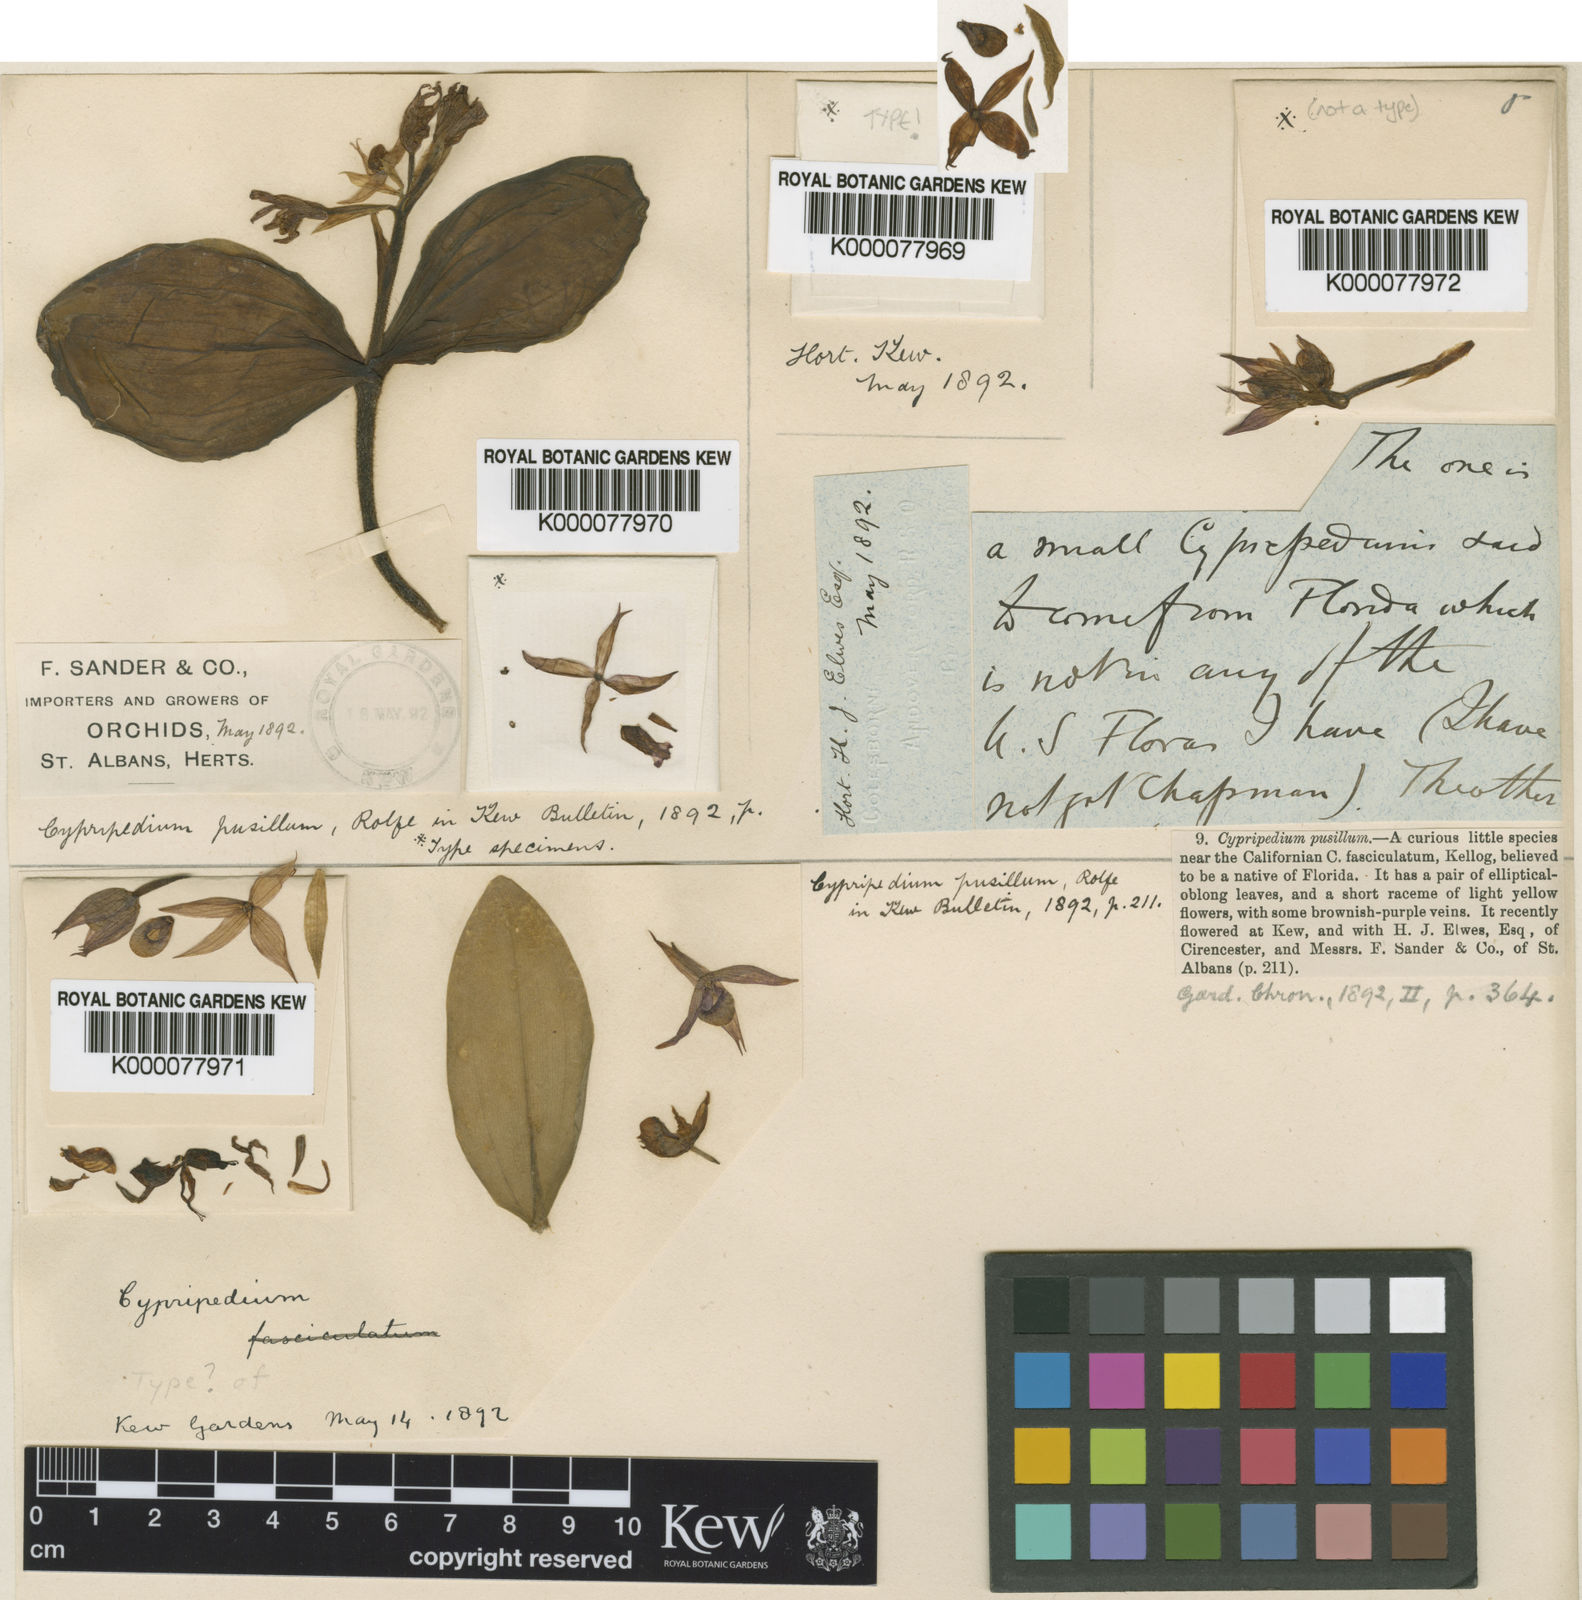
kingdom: Plantae
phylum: Tracheophyta
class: Liliopsida
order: Asparagales
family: Orchidaceae
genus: Cypripedium
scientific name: Cypripedium fasciculatum
